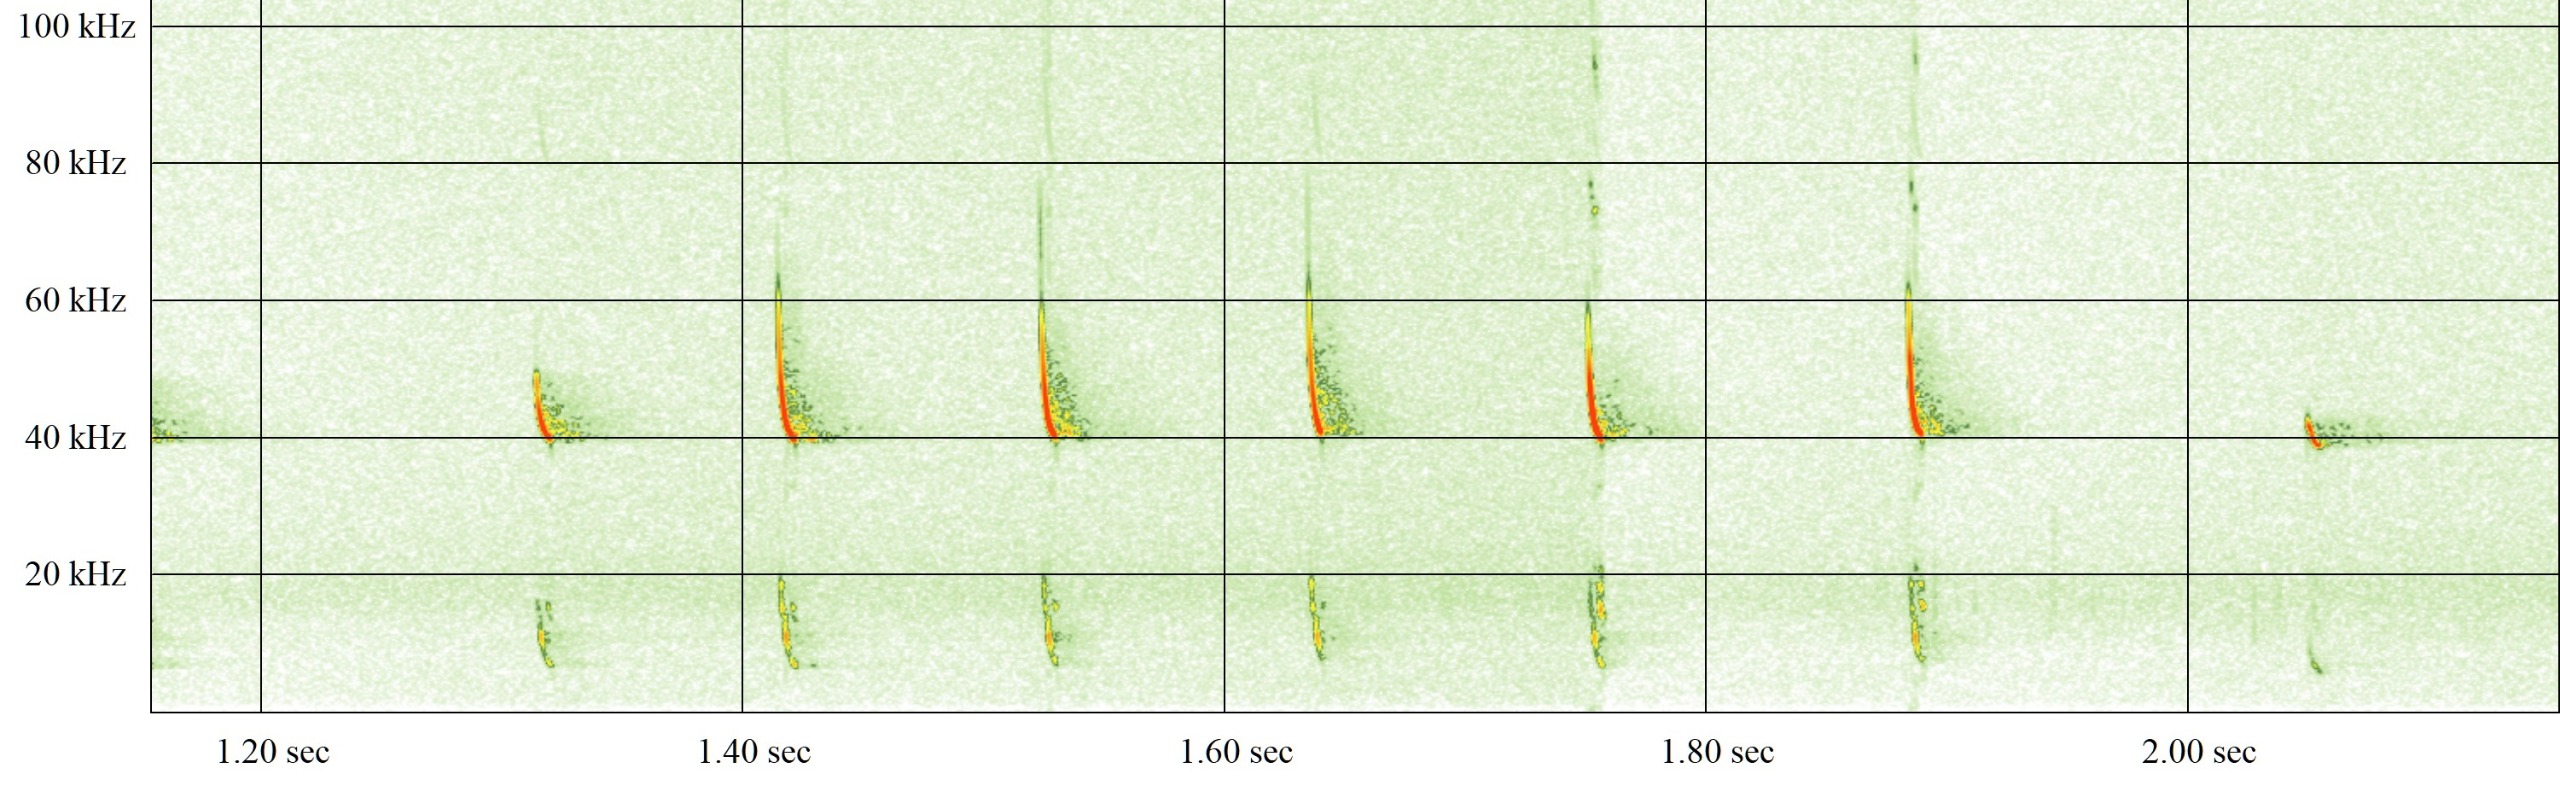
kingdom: Animalia
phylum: Chordata
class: Mammalia
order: Chiroptera
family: Vespertilionidae
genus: Pipistrellus
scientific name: Pipistrellus nathusii
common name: Troldflagermus
